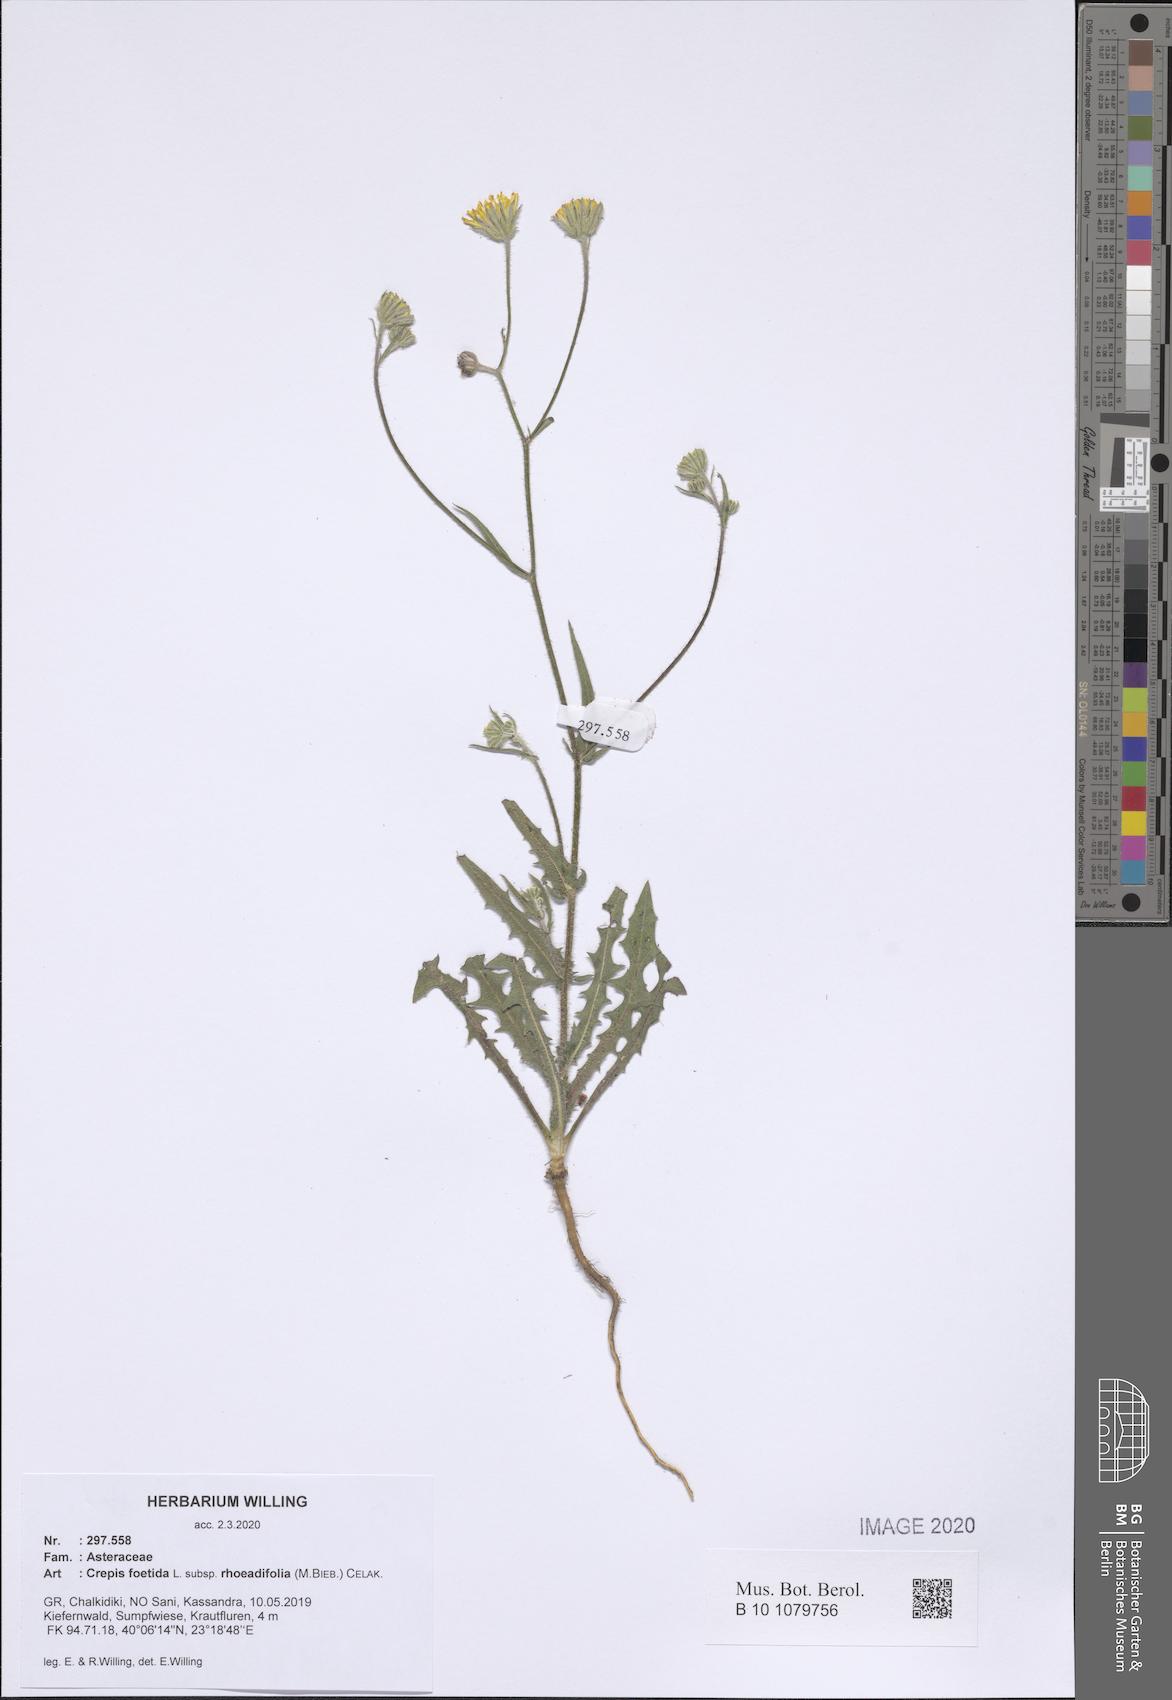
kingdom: Plantae
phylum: Tracheophyta
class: Magnoliopsida
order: Asterales
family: Asteraceae
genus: Crepis
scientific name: Crepis foetida
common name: Stinking hawk's-beard
